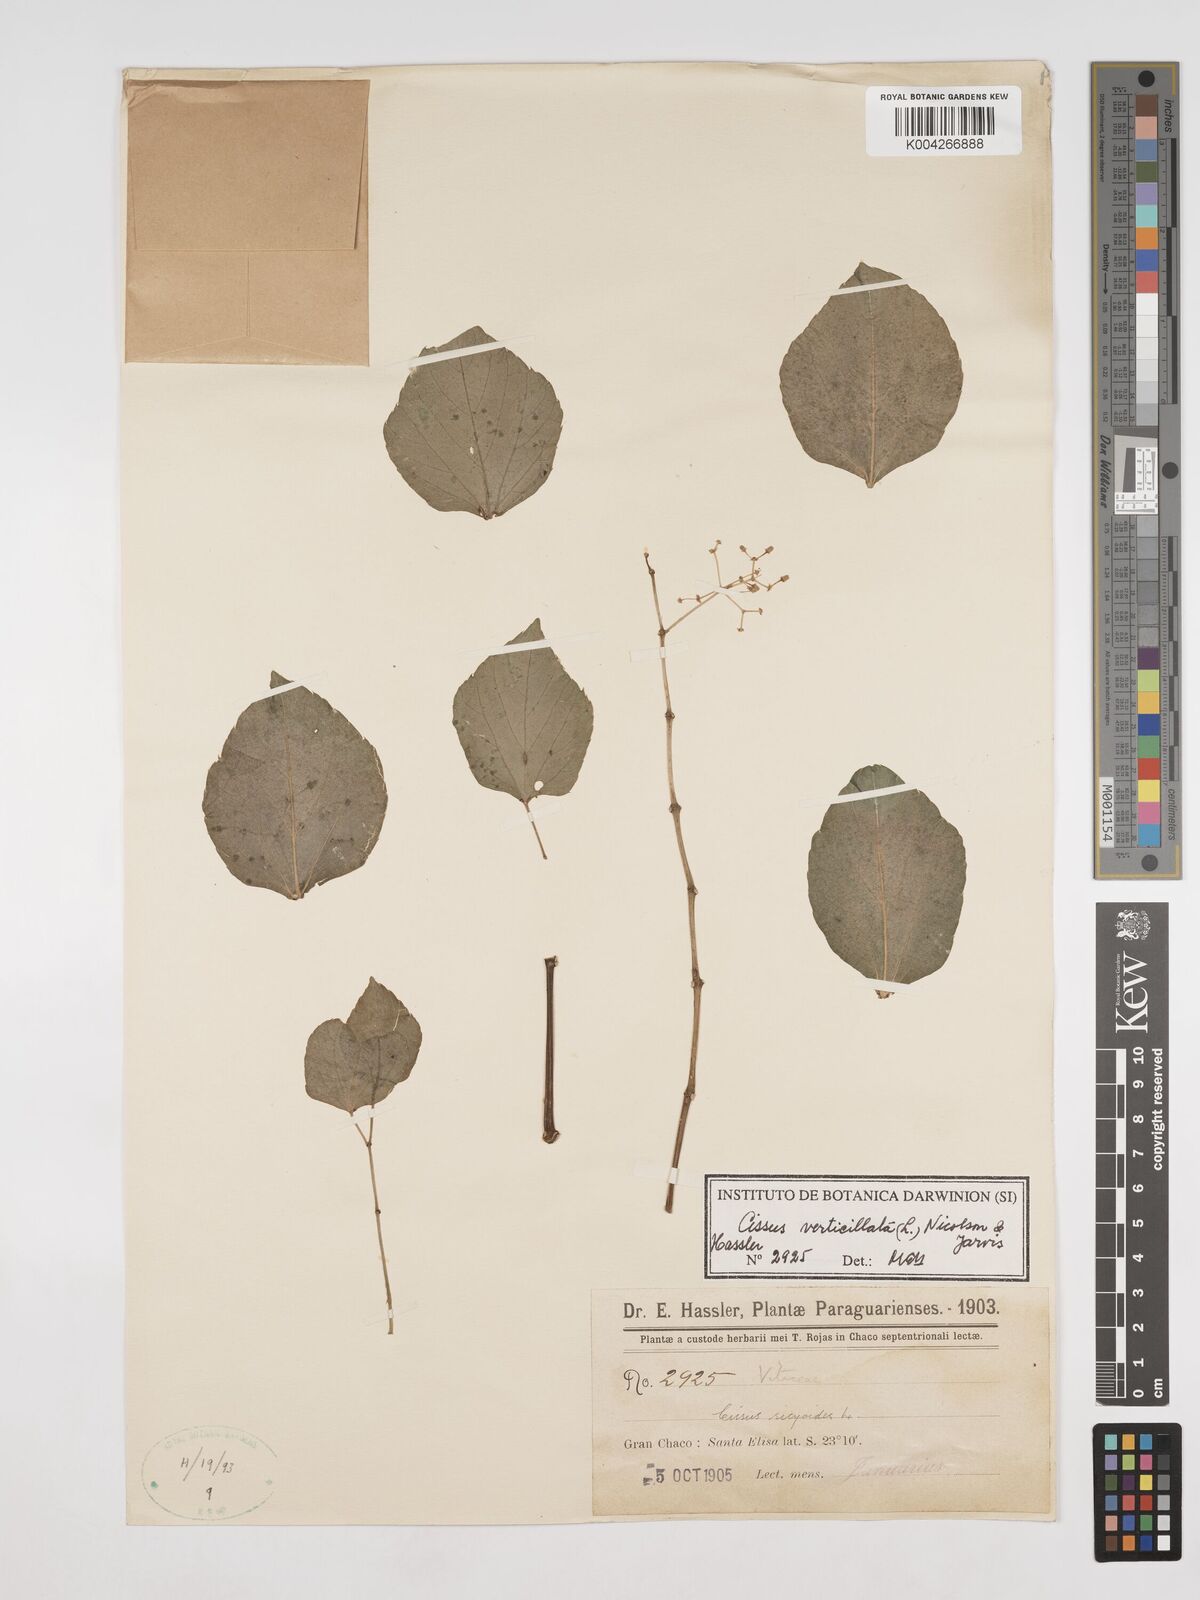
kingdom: Plantae
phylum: Tracheophyta
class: Magnoliopsida
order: Vitales
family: Vitaceae
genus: Cissus
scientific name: Cissus verticillata
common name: Princess vine
